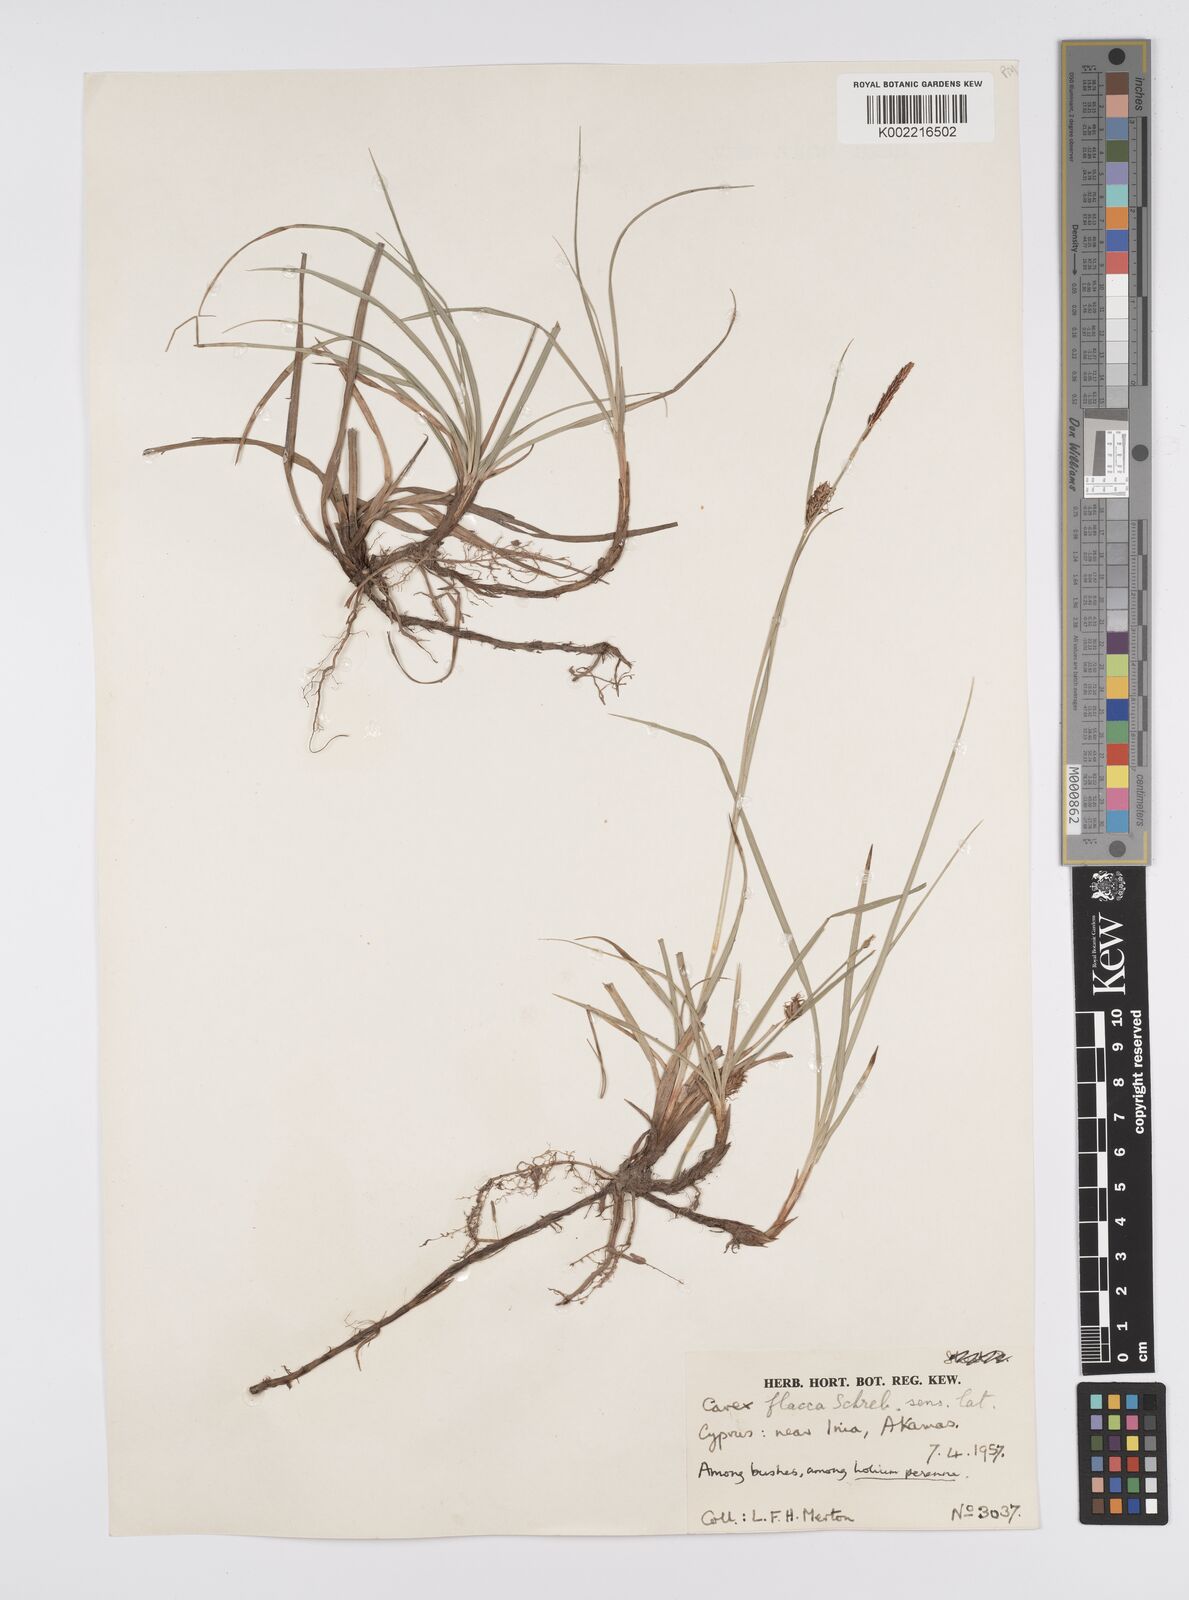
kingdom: Plantae
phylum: Tracheophyta
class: Liliopsida
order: Poales
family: Cyperaceae
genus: Carex
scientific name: Carex flacca
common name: Glaucous sedge
